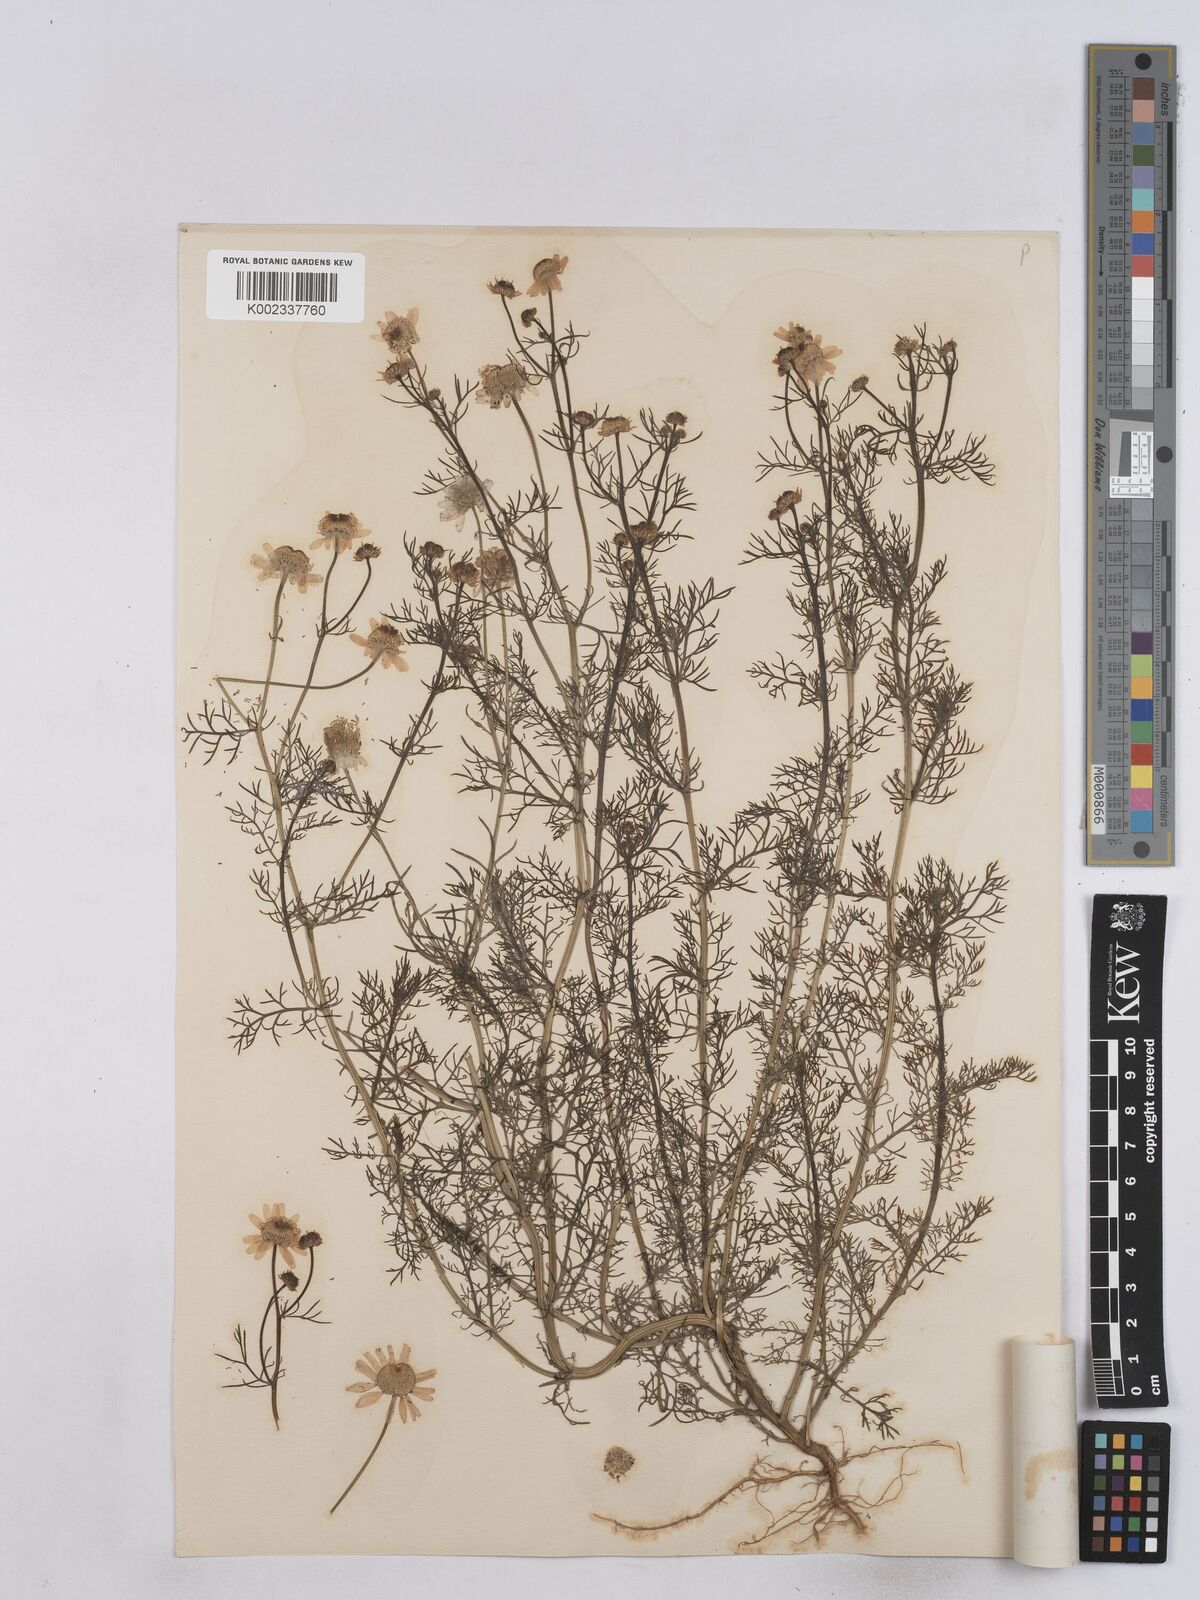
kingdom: Plantae
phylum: Tracheophyta
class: Magnoliopsida
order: Asterales
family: Asteraceae
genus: Matricaria
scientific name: Matricaria chamomilla
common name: Scented mayweed
